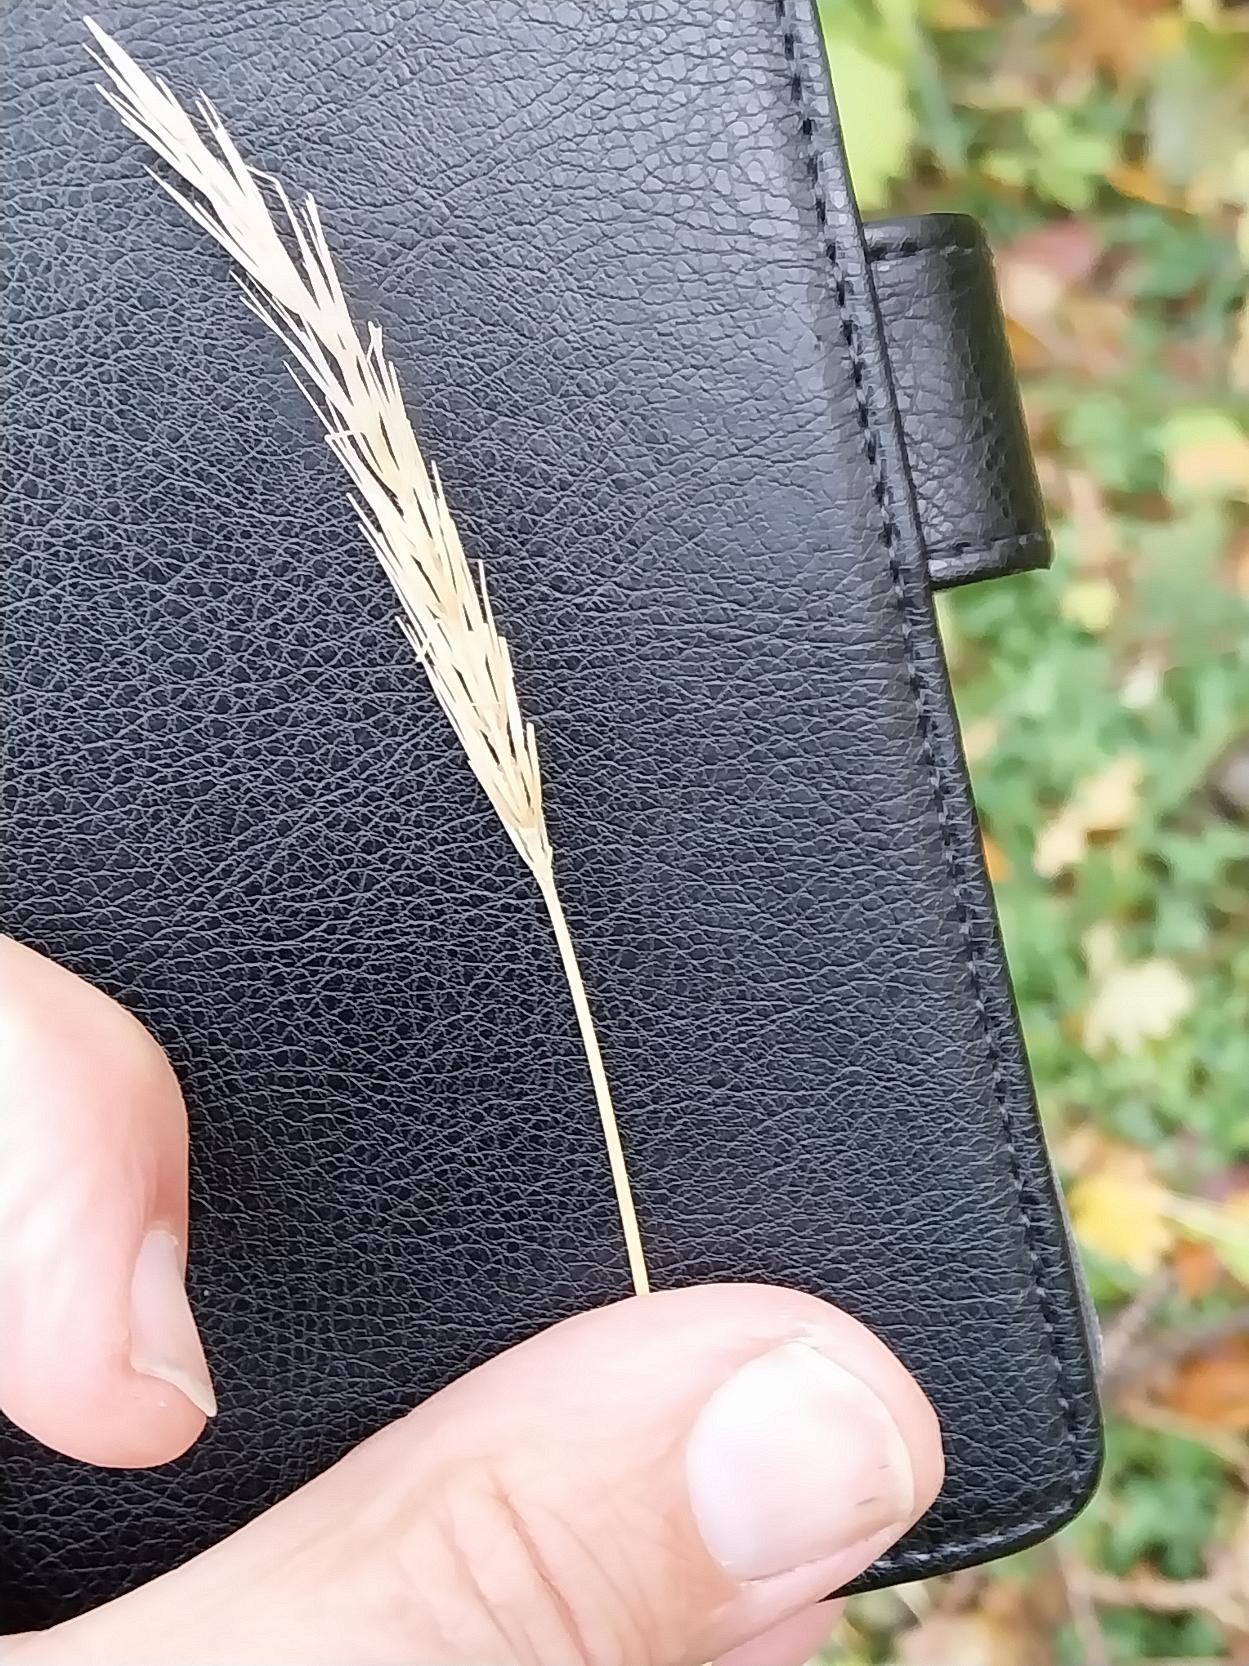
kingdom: Plantae
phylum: Tracheophyta
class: Liliopsida
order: Poales
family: Poaceae
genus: Hordelymus
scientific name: Hordelymus europaeus
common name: Skovbyg
